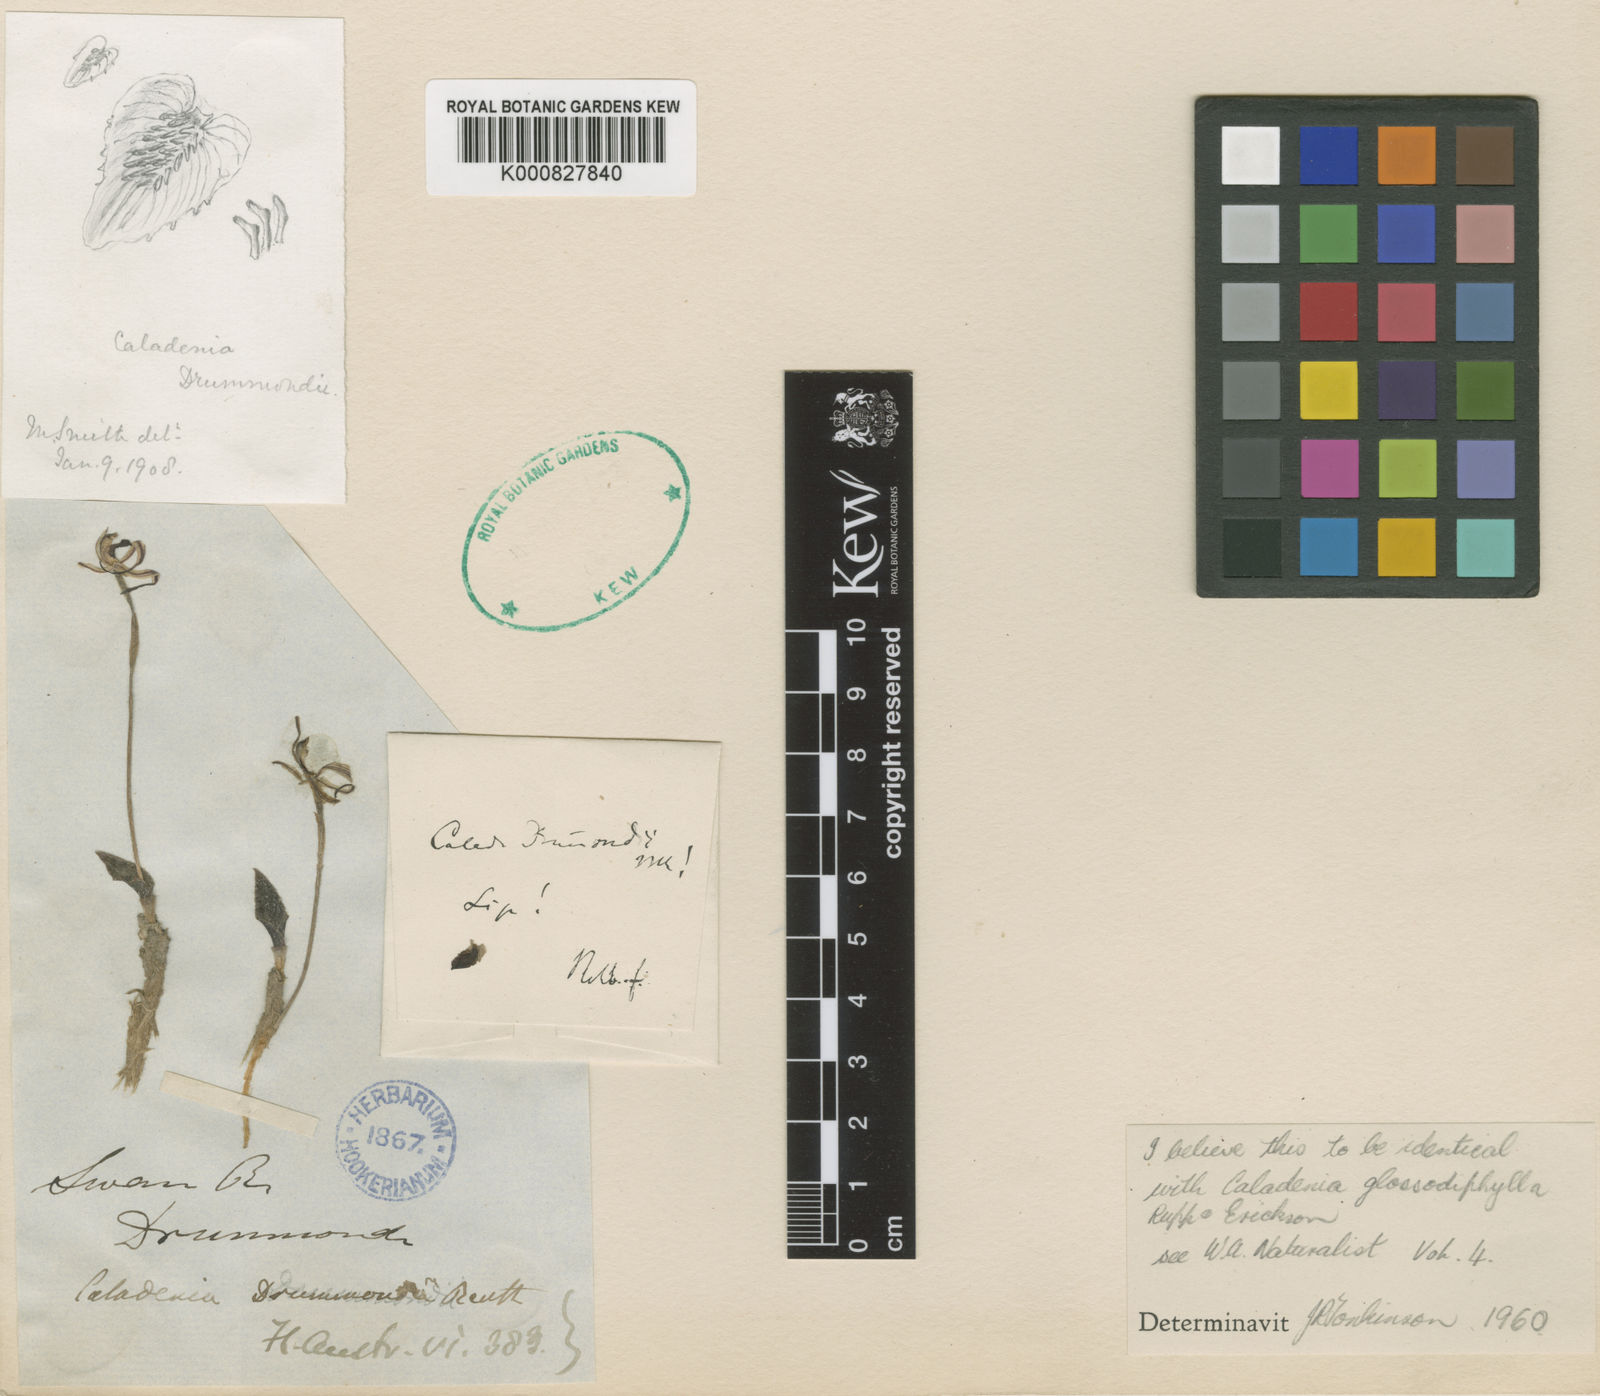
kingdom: Plantae
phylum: Tracheophyta
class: Liliopsida
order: Asparagales
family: Orchidaceae
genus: Caladenia
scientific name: Caladenia drummondii
